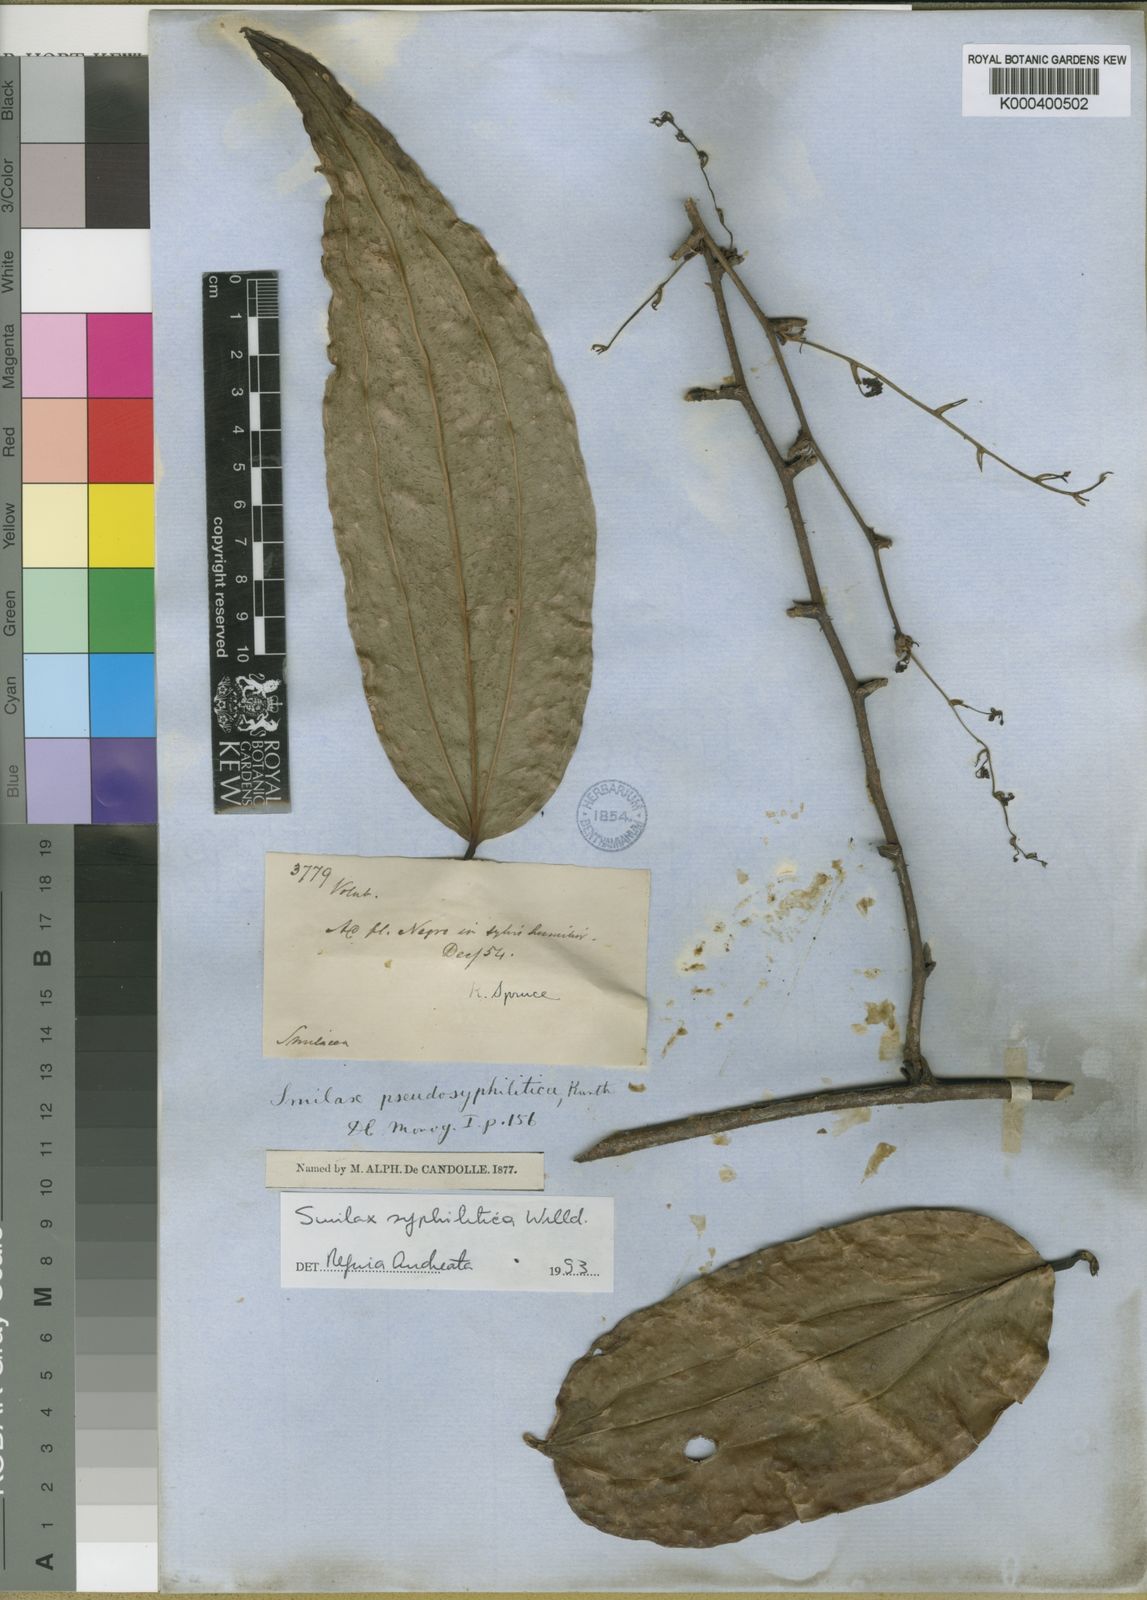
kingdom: Plantae
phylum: Tracheophyta
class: Liliopsida
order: Liliales
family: Smilacaceae
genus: Smilax
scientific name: Smilax siphilitica
